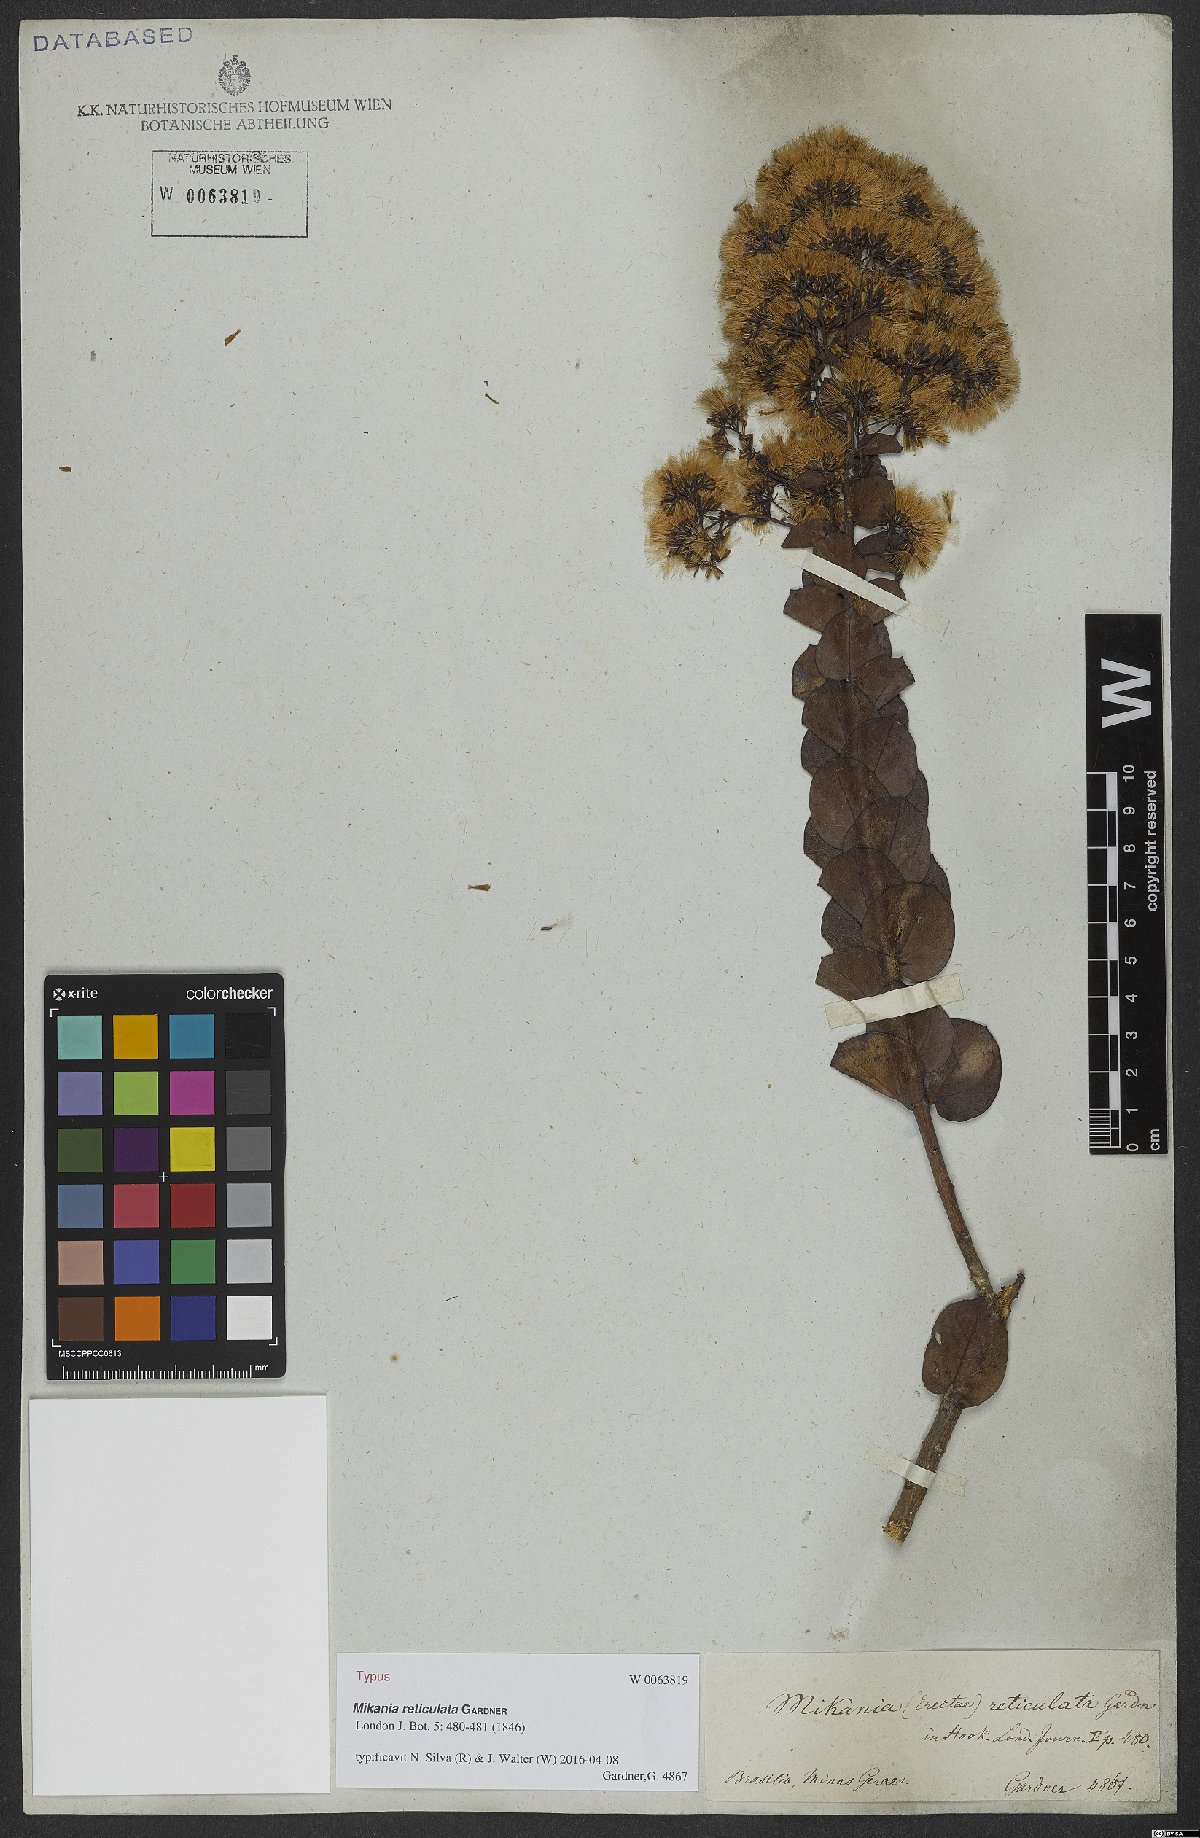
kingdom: Plantae
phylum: Tracheophyta
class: Magnoliopsida
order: Asterales
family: Asteraceae
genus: Mikania
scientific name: Mikania reticulata
